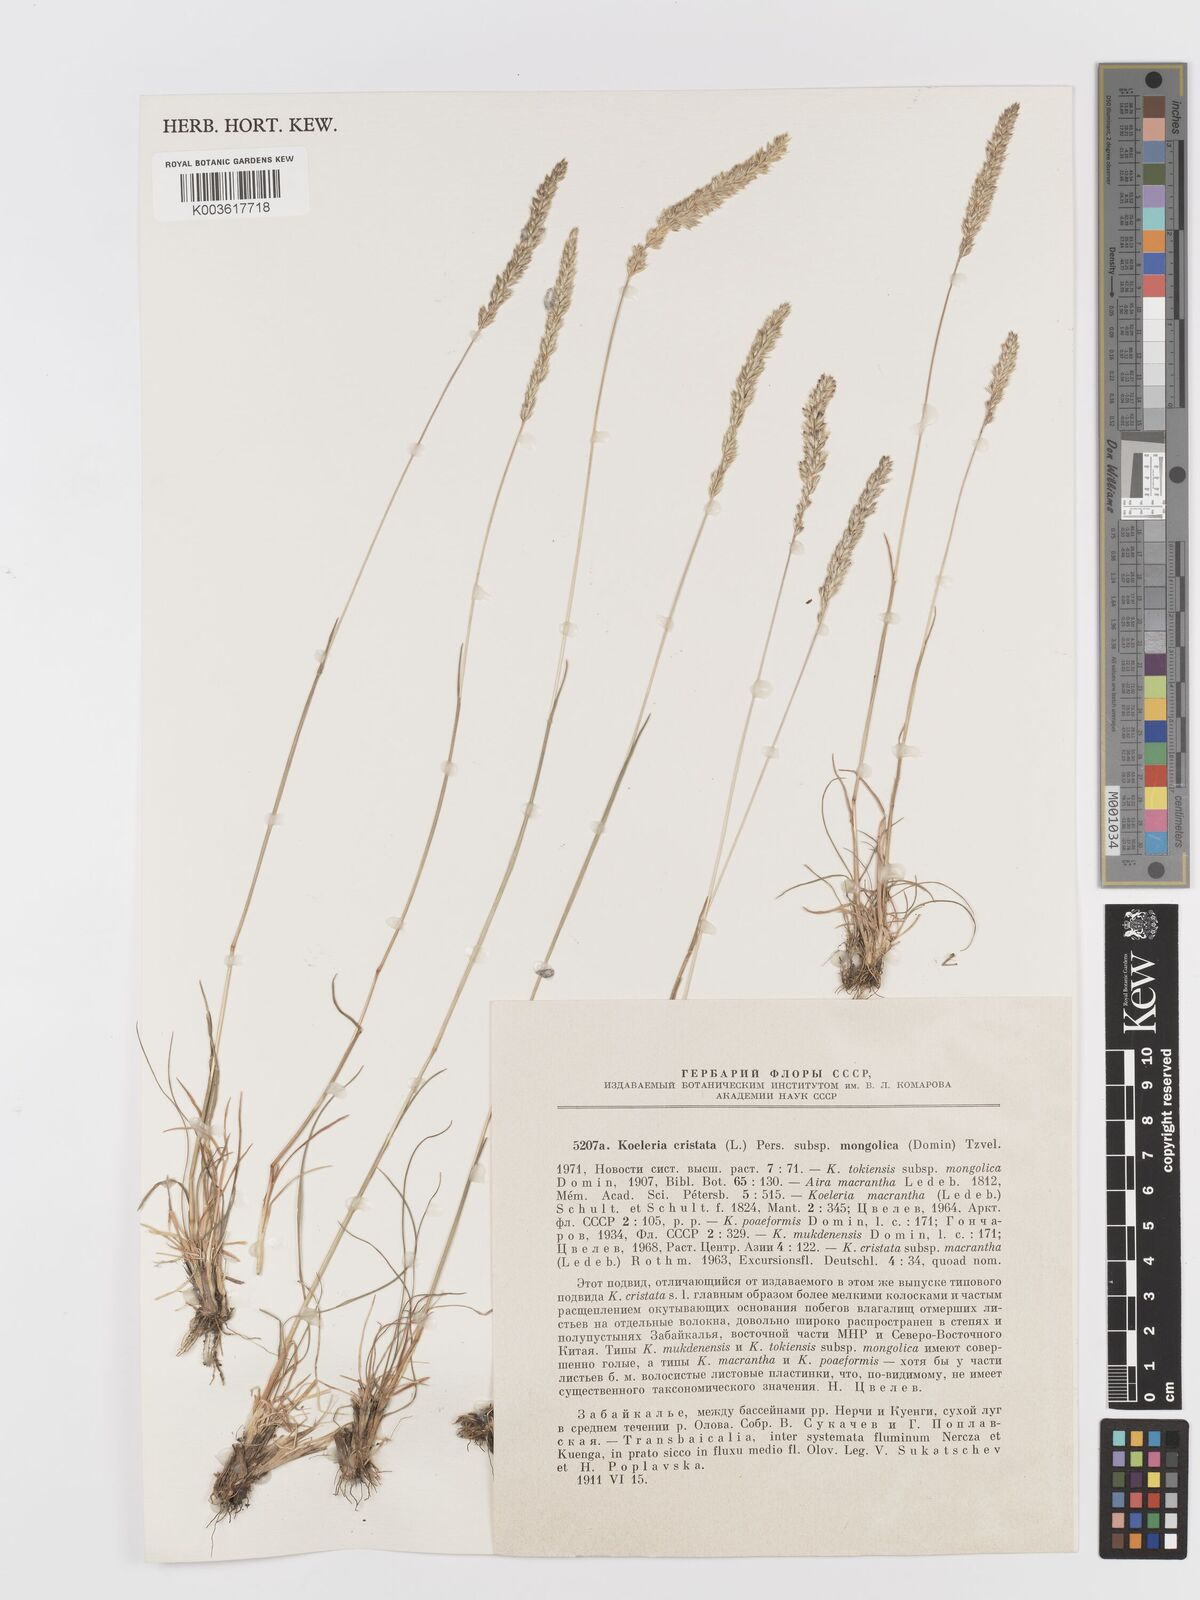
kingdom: Plantae
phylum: Tracheophyta
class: Liliopsida
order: Poales
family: Poaceae
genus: Koeleria
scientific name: Koeleria macrantha
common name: Crested hair-grass
